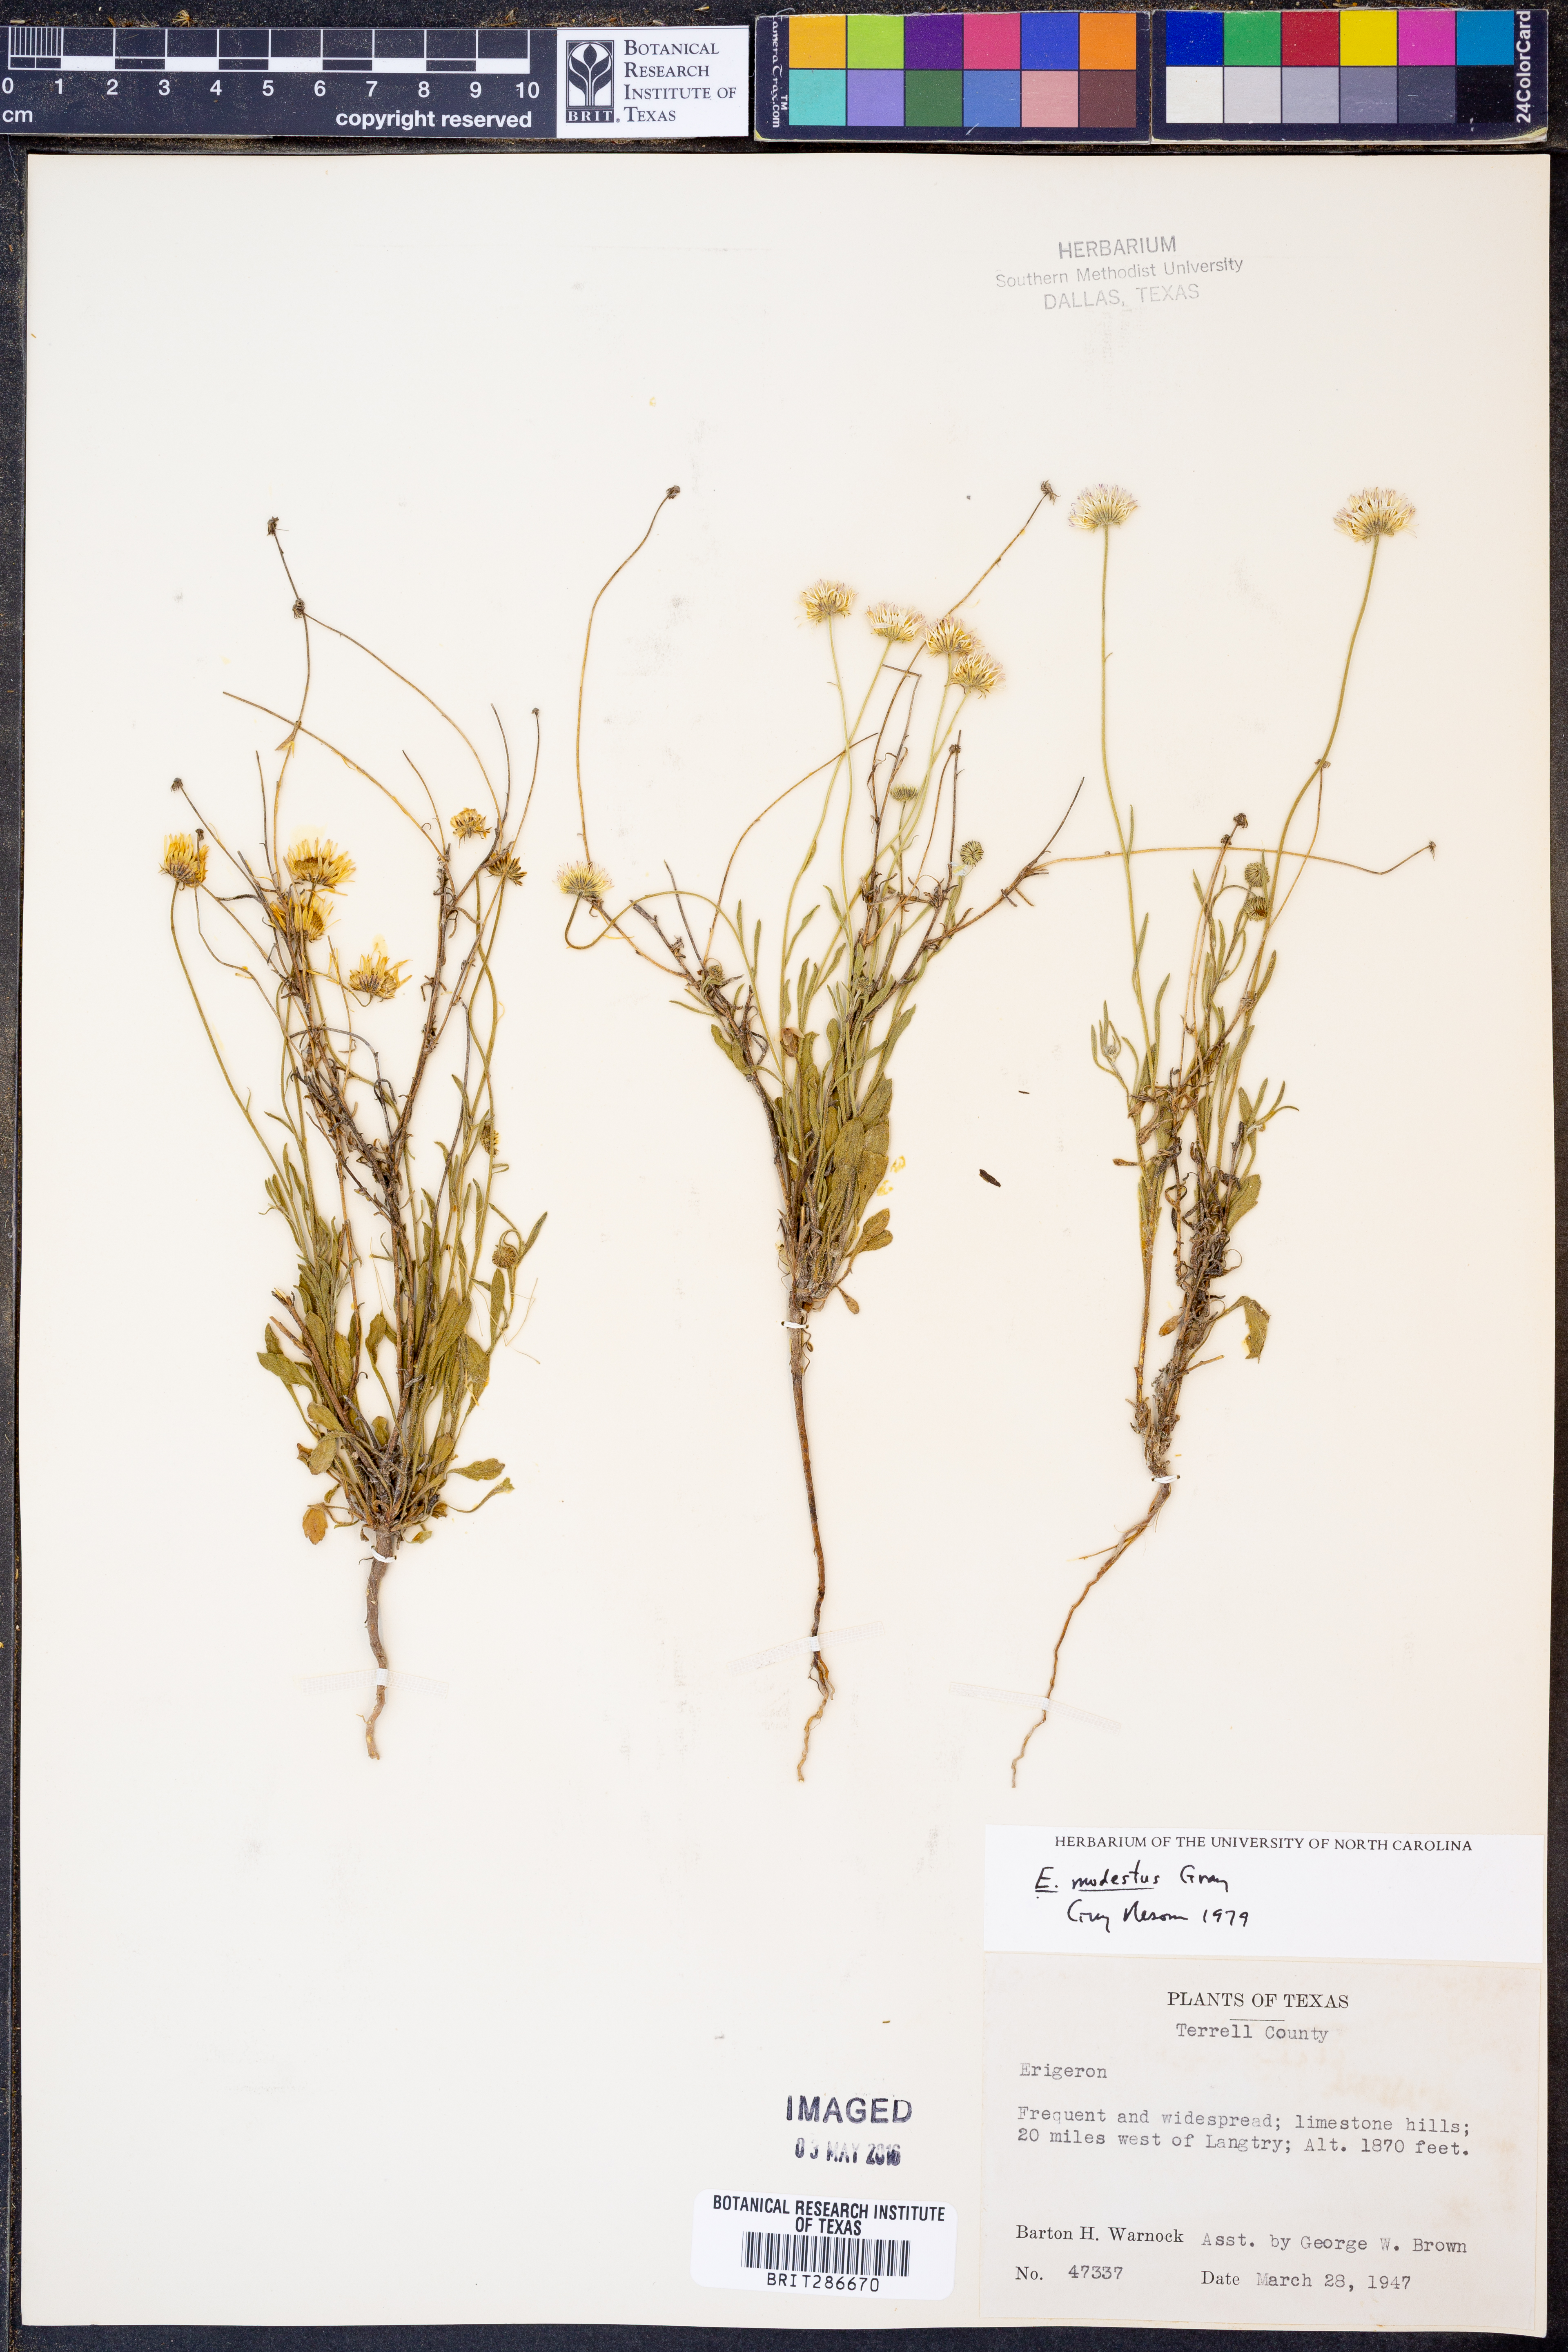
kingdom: Plantae
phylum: Tracheophyta
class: Magnoliopsida
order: Asterales
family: Asteraceae
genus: Erigeron
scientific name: Erigeron modestus
